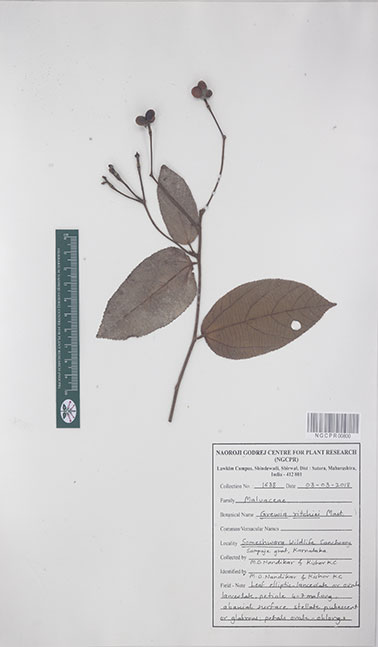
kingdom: Plantae
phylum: Tracheophyta
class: Magnoliopsida
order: Malvales
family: Malvaceae
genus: Grewia
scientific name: Grewia ritchiei
